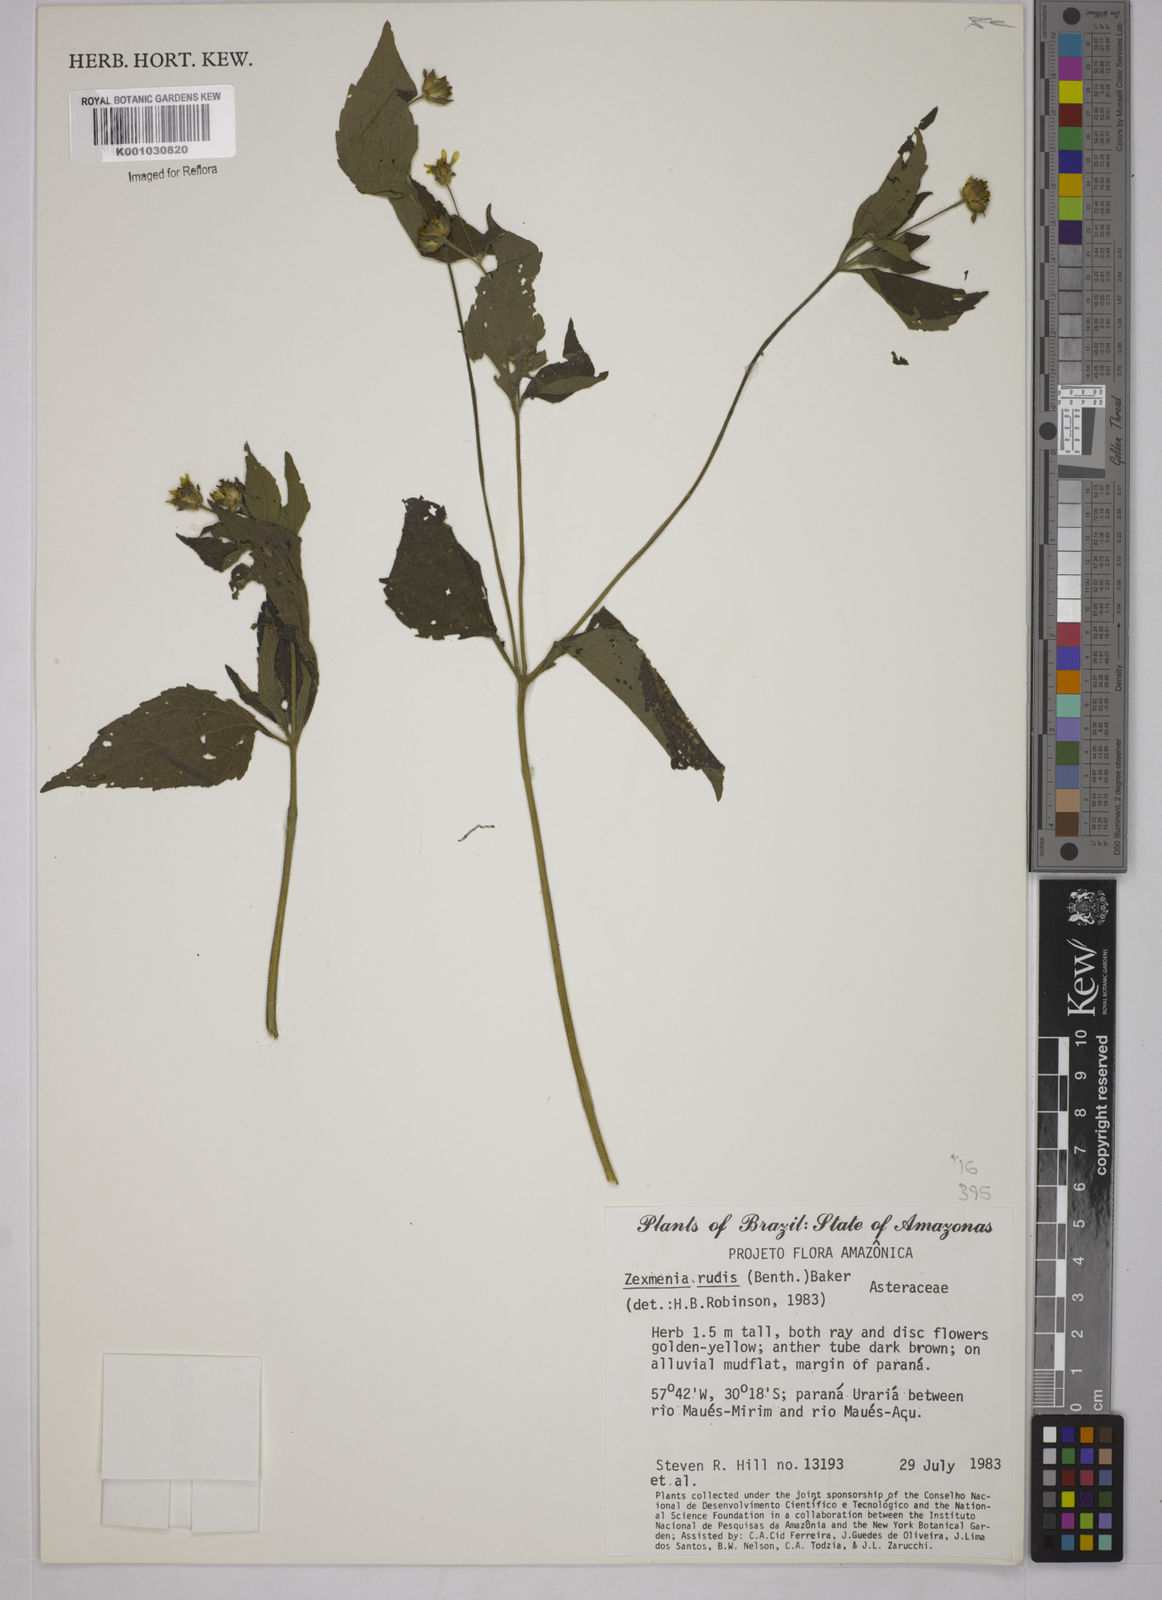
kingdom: Plantae
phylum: Tracheophyta
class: Magnoliopsida
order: Asterales
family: Asteraceae
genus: Wedelia
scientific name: Wedelia rudis
